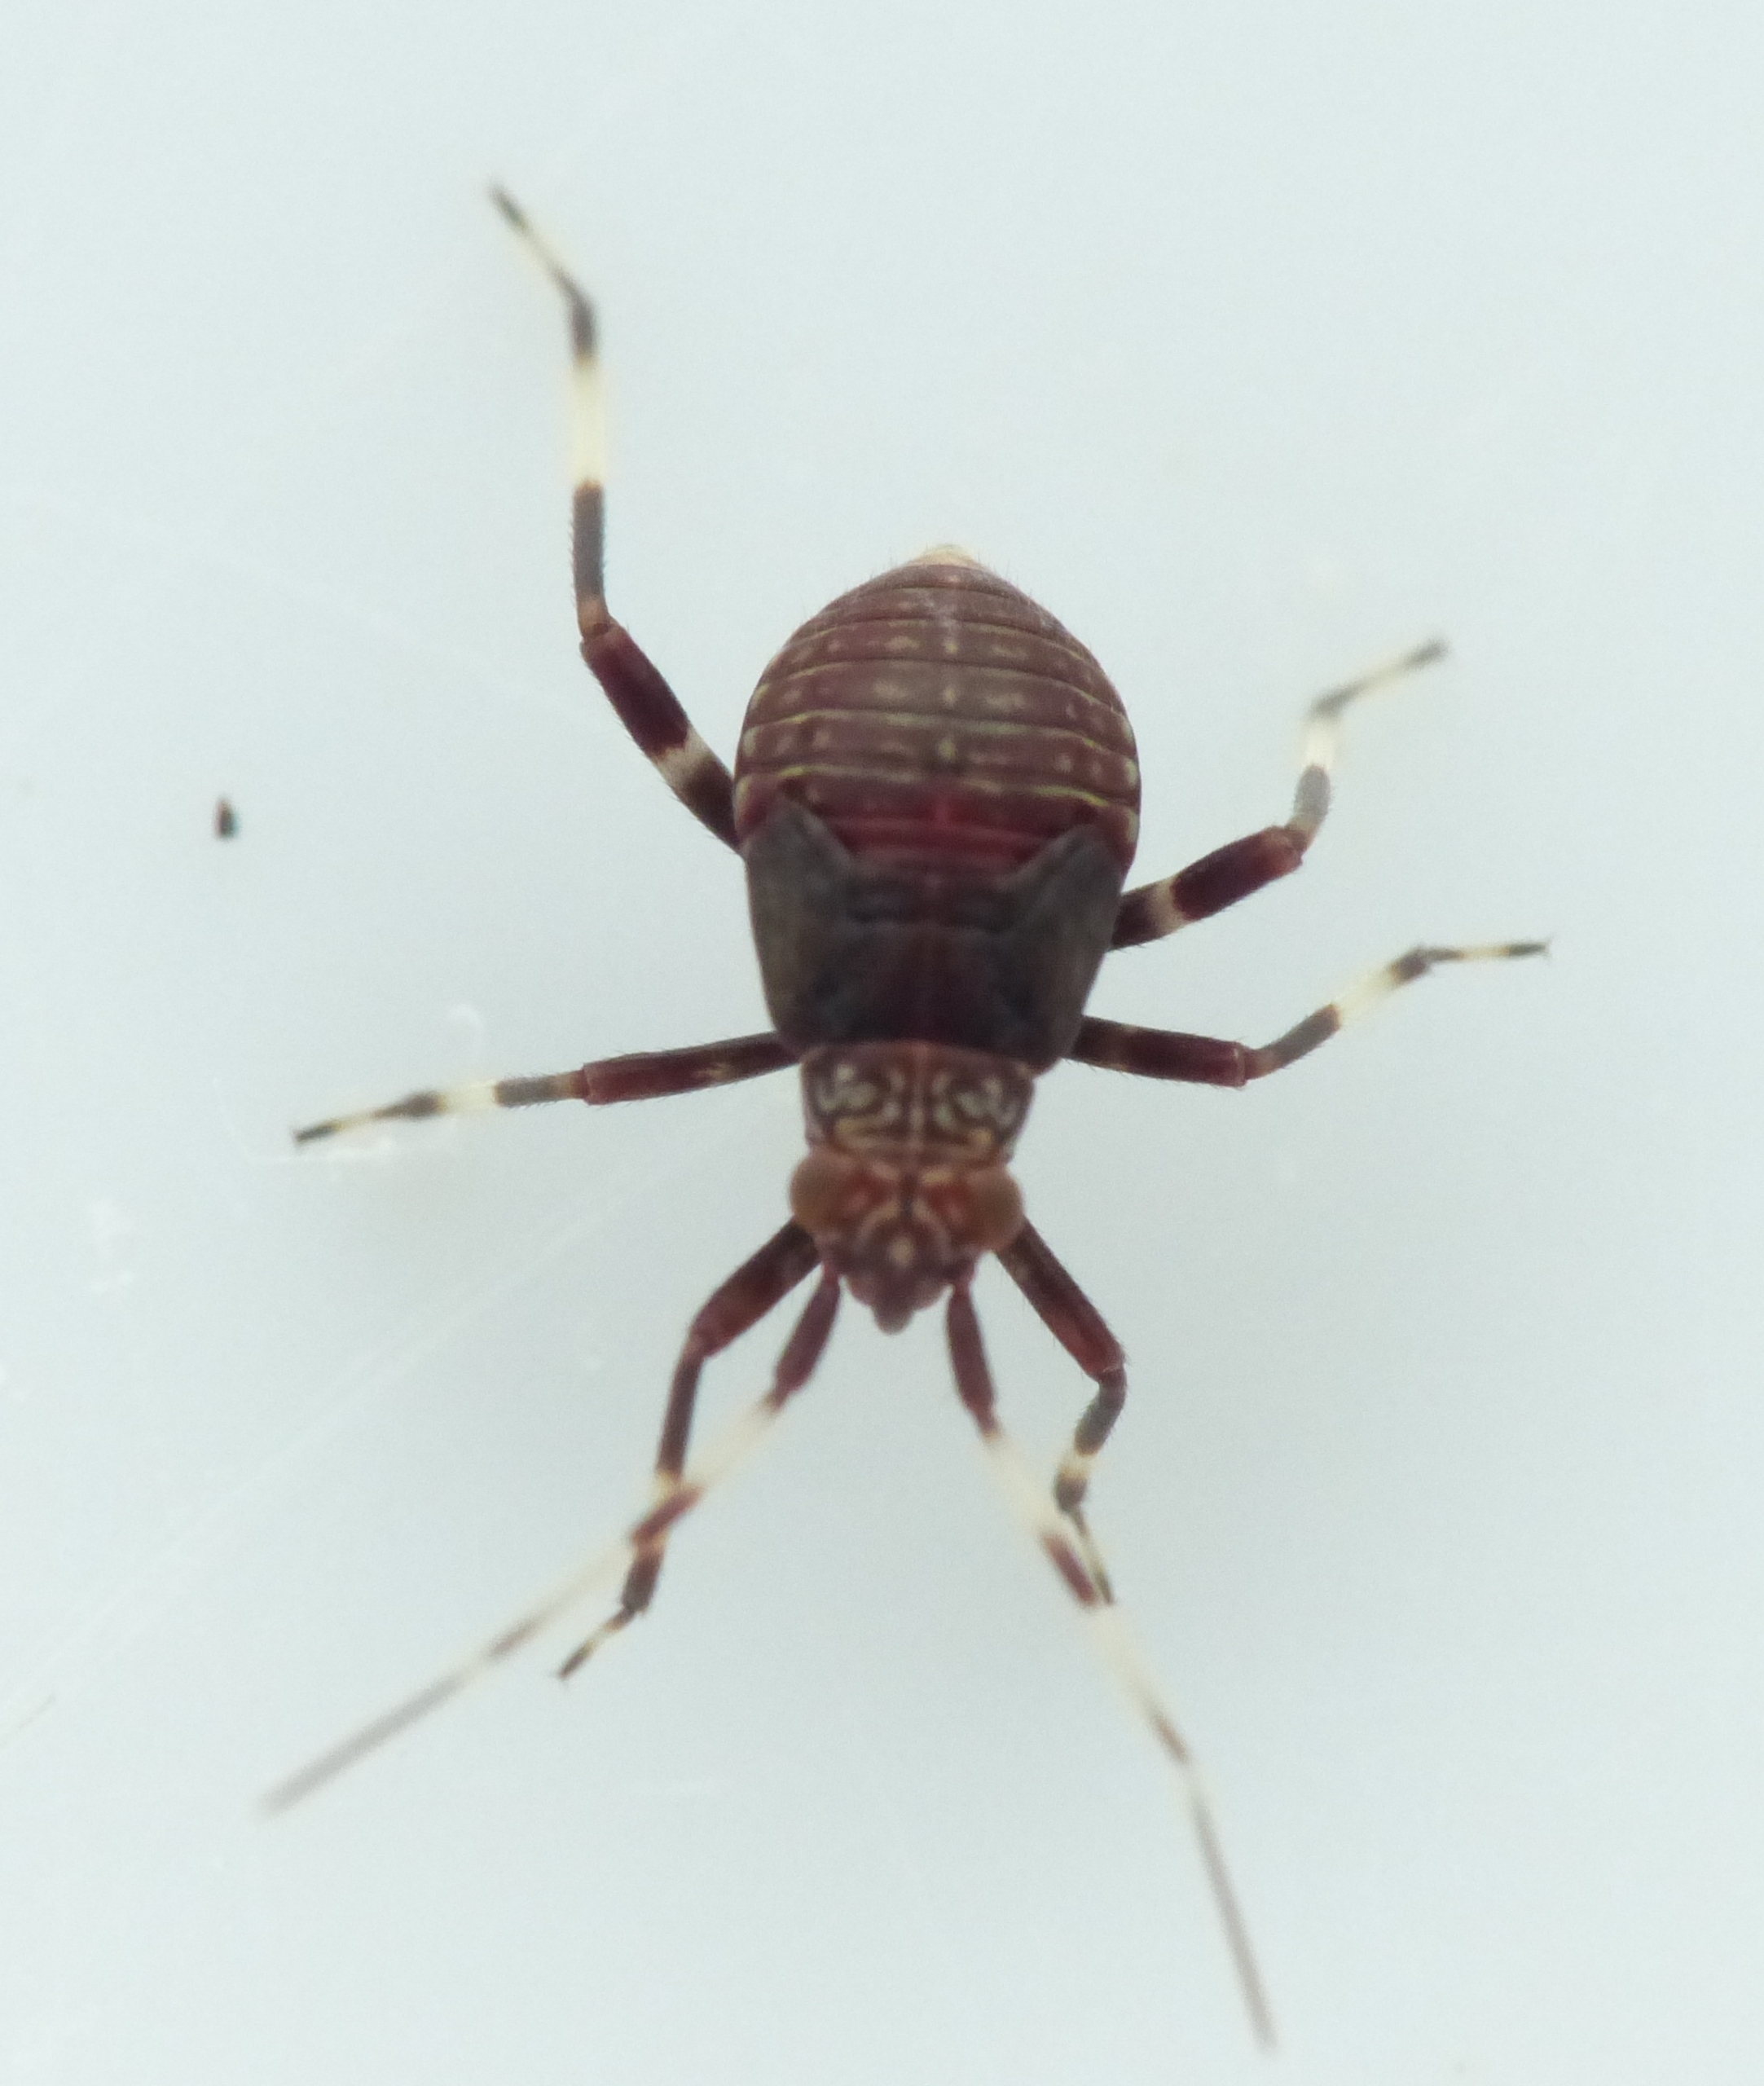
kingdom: Animalia
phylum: Arthropoda
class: Insecta
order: Hemiptera
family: Miridae
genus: Mermitelocerus
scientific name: Mermitelocerus schmidtii
